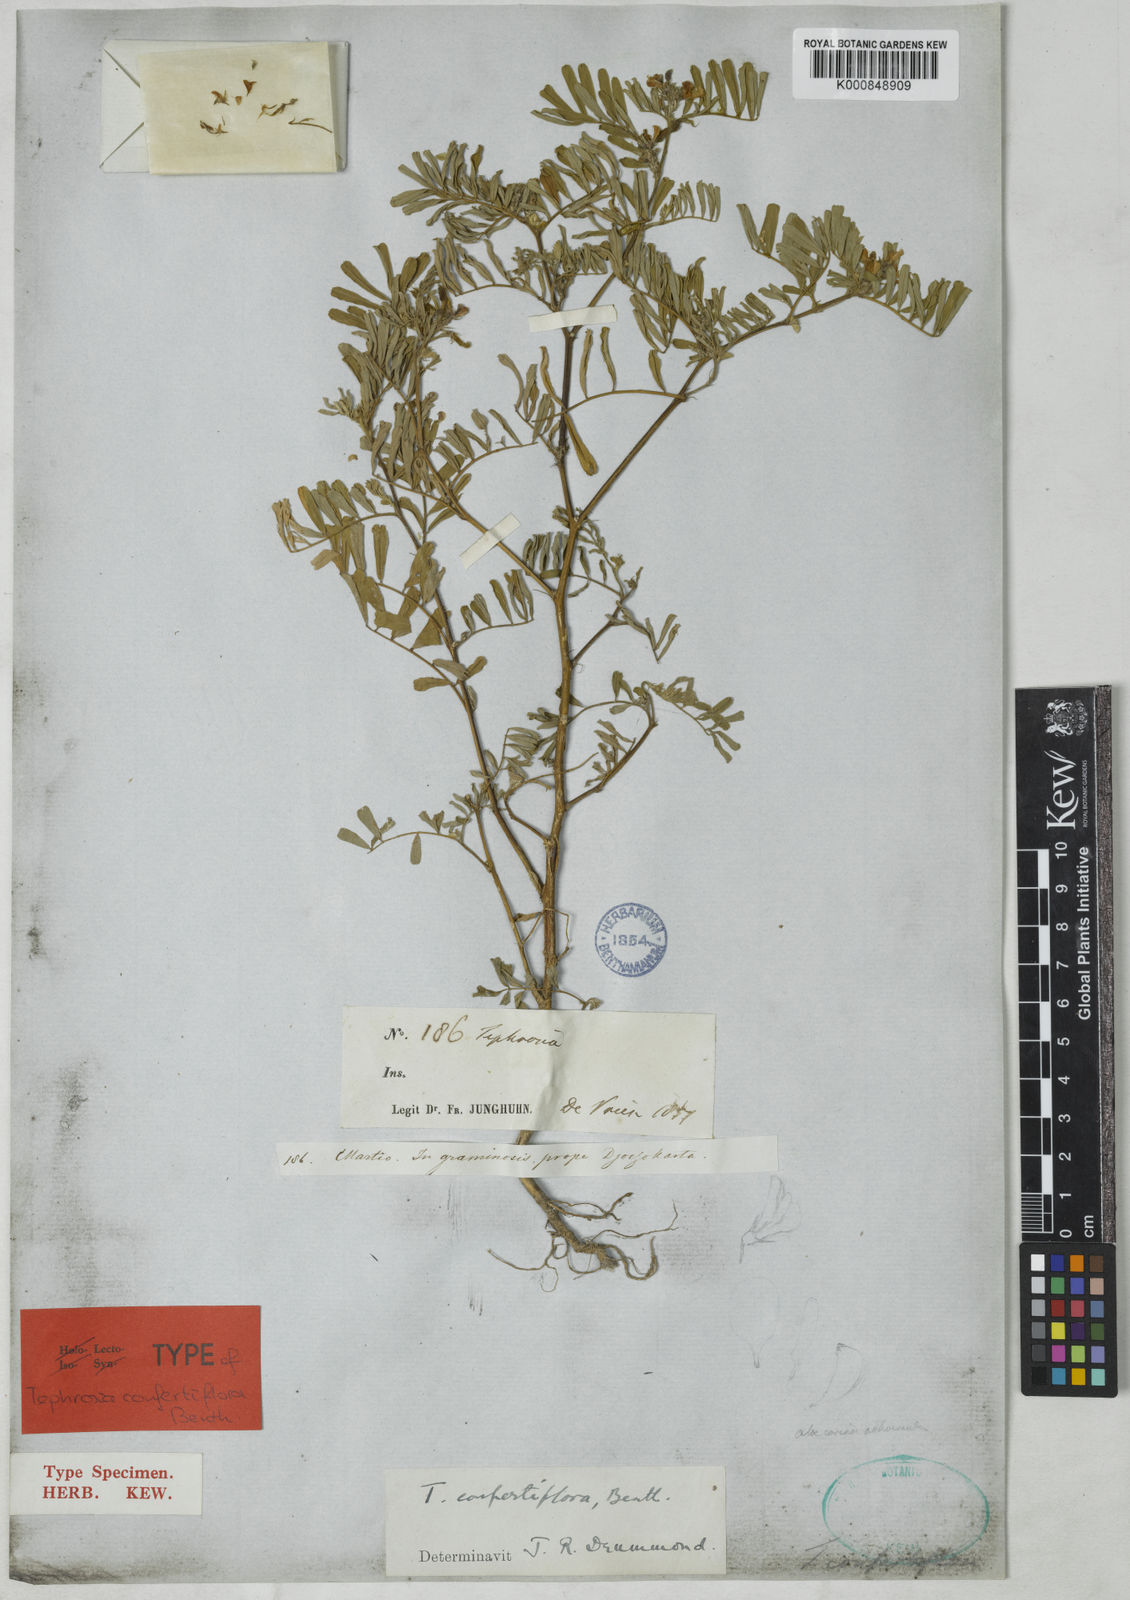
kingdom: Plantae
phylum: Tracheophyta
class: Magnoliopsida
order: Fabales
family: Fabaceae
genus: Tephrosia
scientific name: Tephrosia
